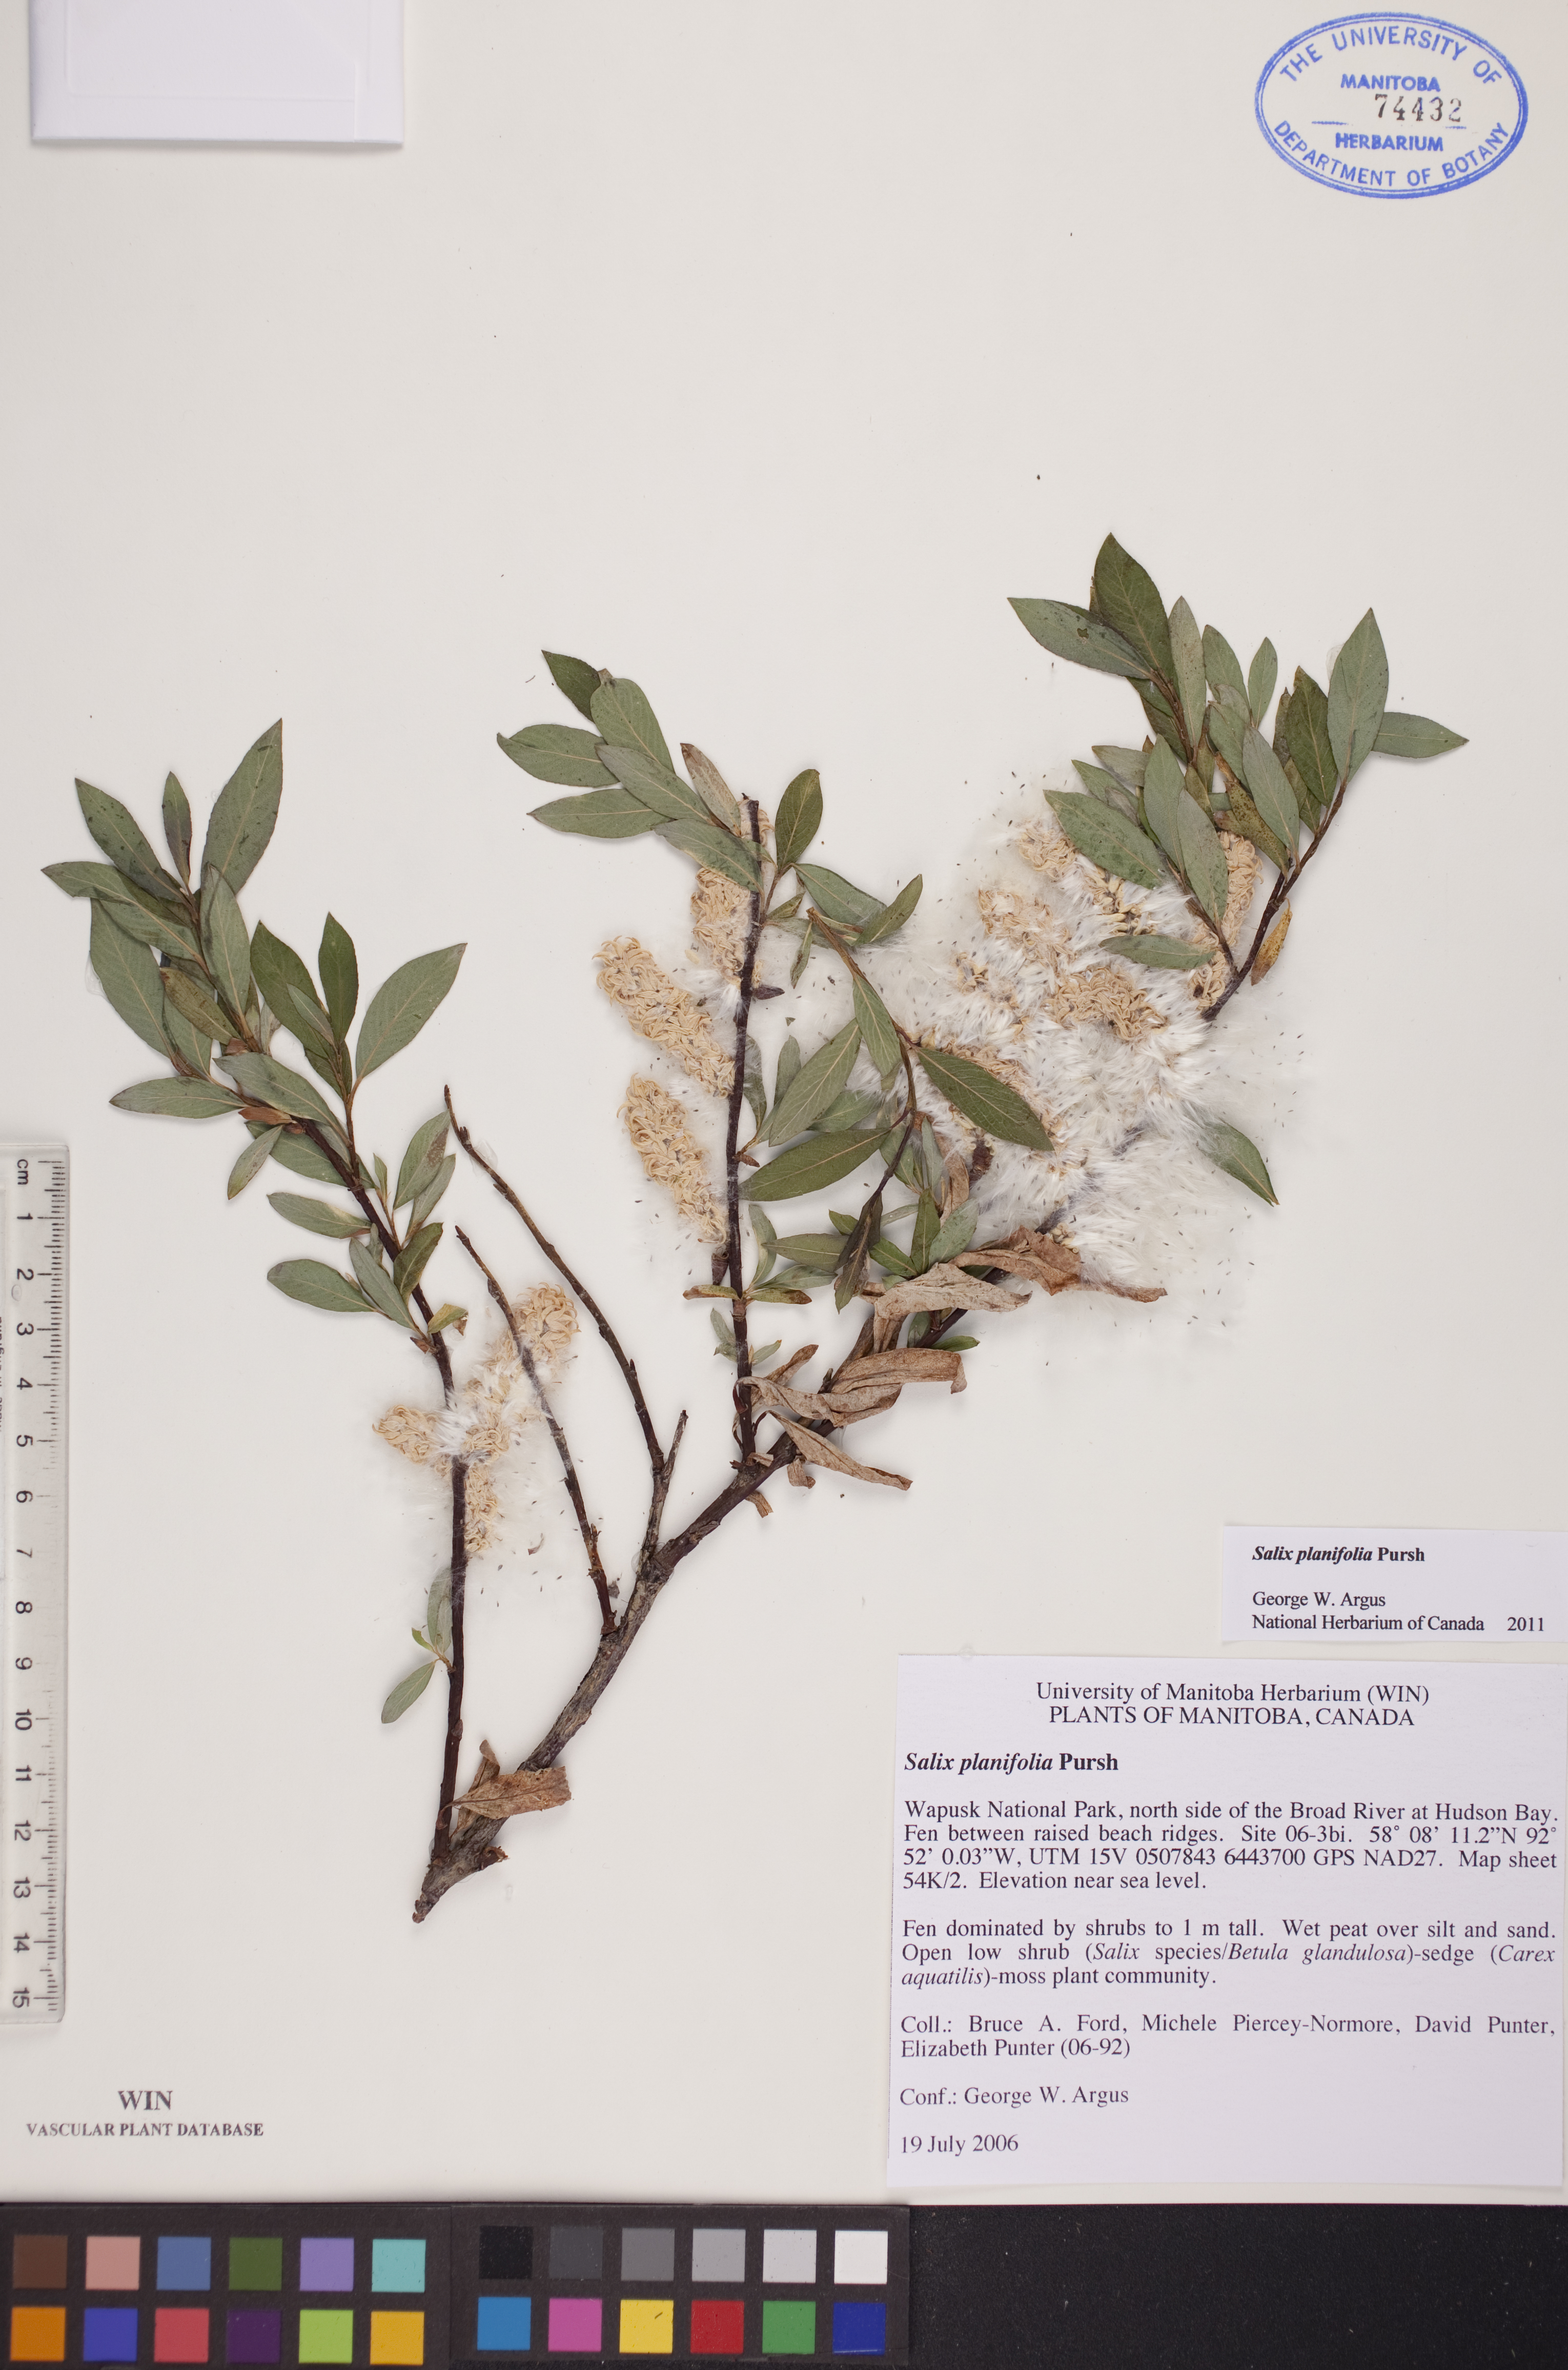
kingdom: Plantae
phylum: Tracheophyta
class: Magnoliopsida
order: Malpighiales
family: Salicaceae
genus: Salix
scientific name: Salix planifolia
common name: Mountain willow
